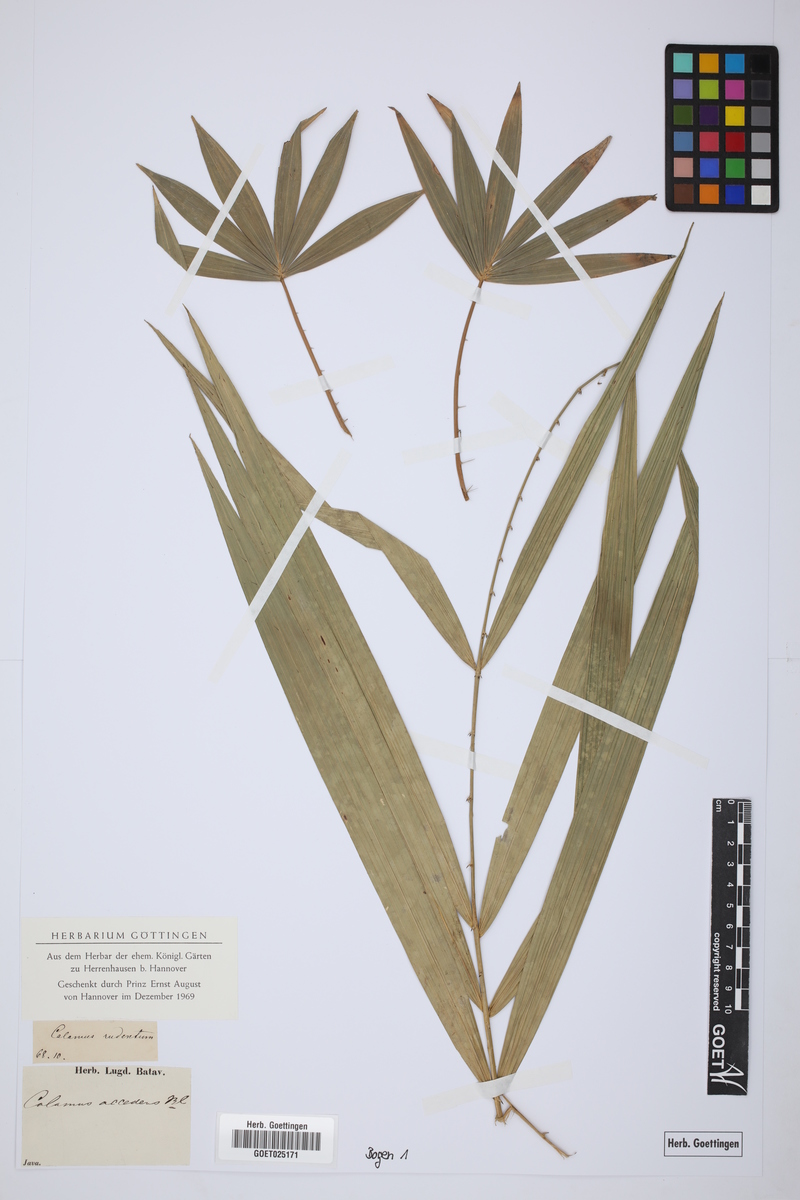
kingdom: Plantae
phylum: Tracheophyta
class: Liliopsida
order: Arecales
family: Arecaceae
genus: Calamus
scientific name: Calamus ruber
